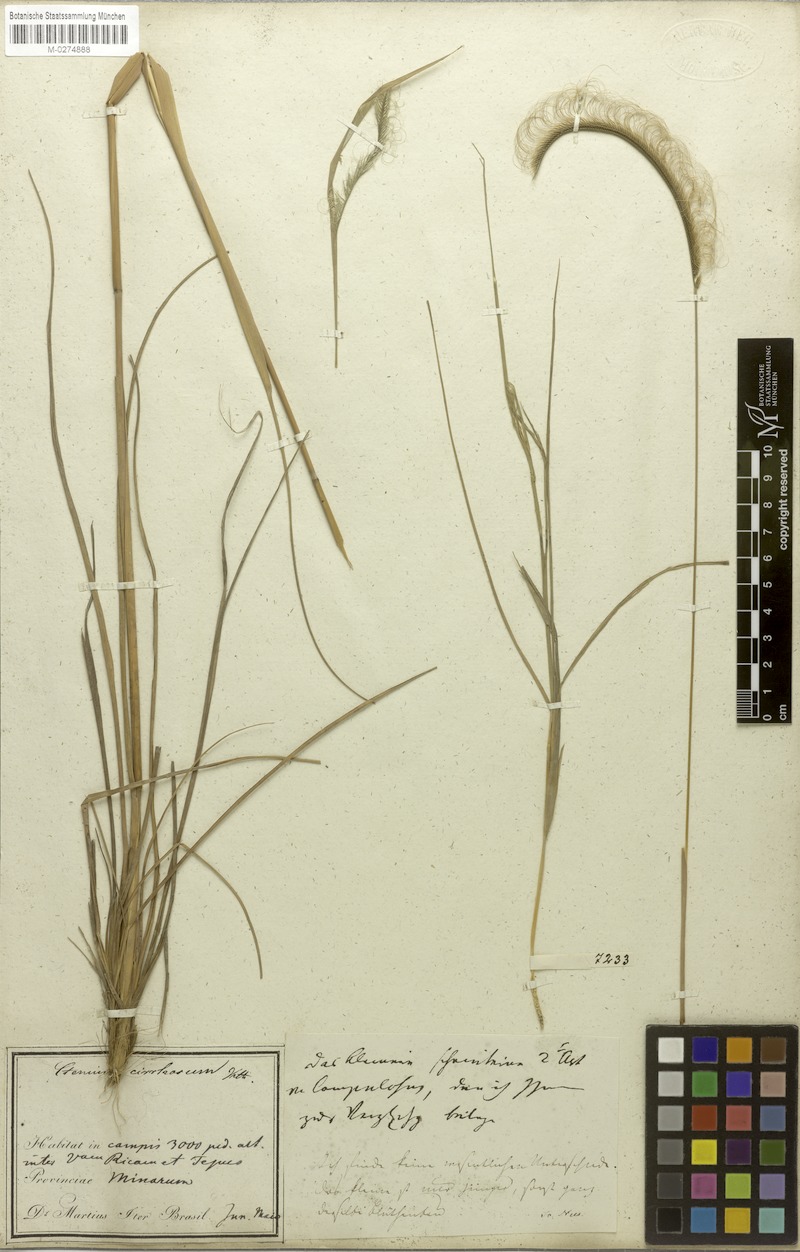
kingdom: Plantae
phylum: Tracheophyta
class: Liliopsida
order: Poales
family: Poaceae
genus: Ctenium
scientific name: Ctenium cirrhosum
